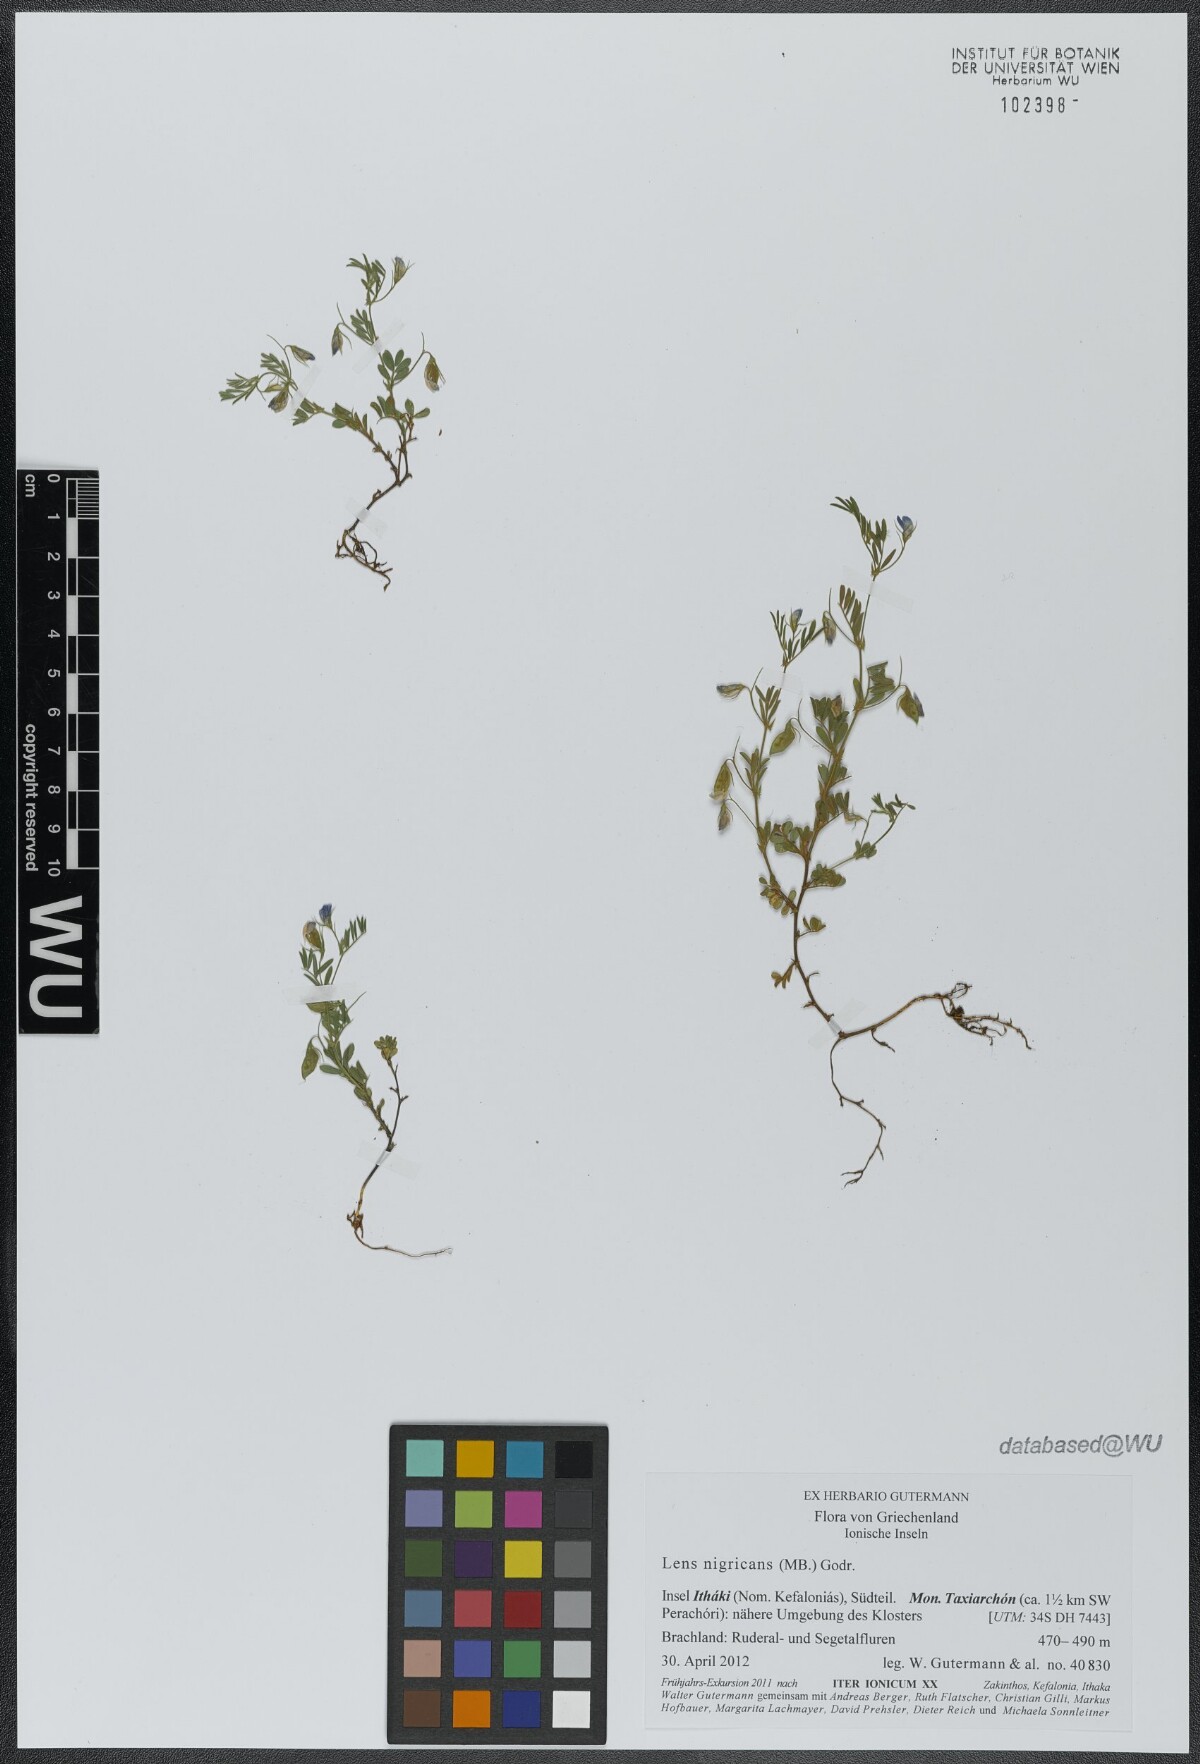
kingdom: Plantae
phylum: Tracheophyta
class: Magnoliopsida
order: Fabales
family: Fabaceae
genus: Vicia
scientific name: Vicia lentoides
